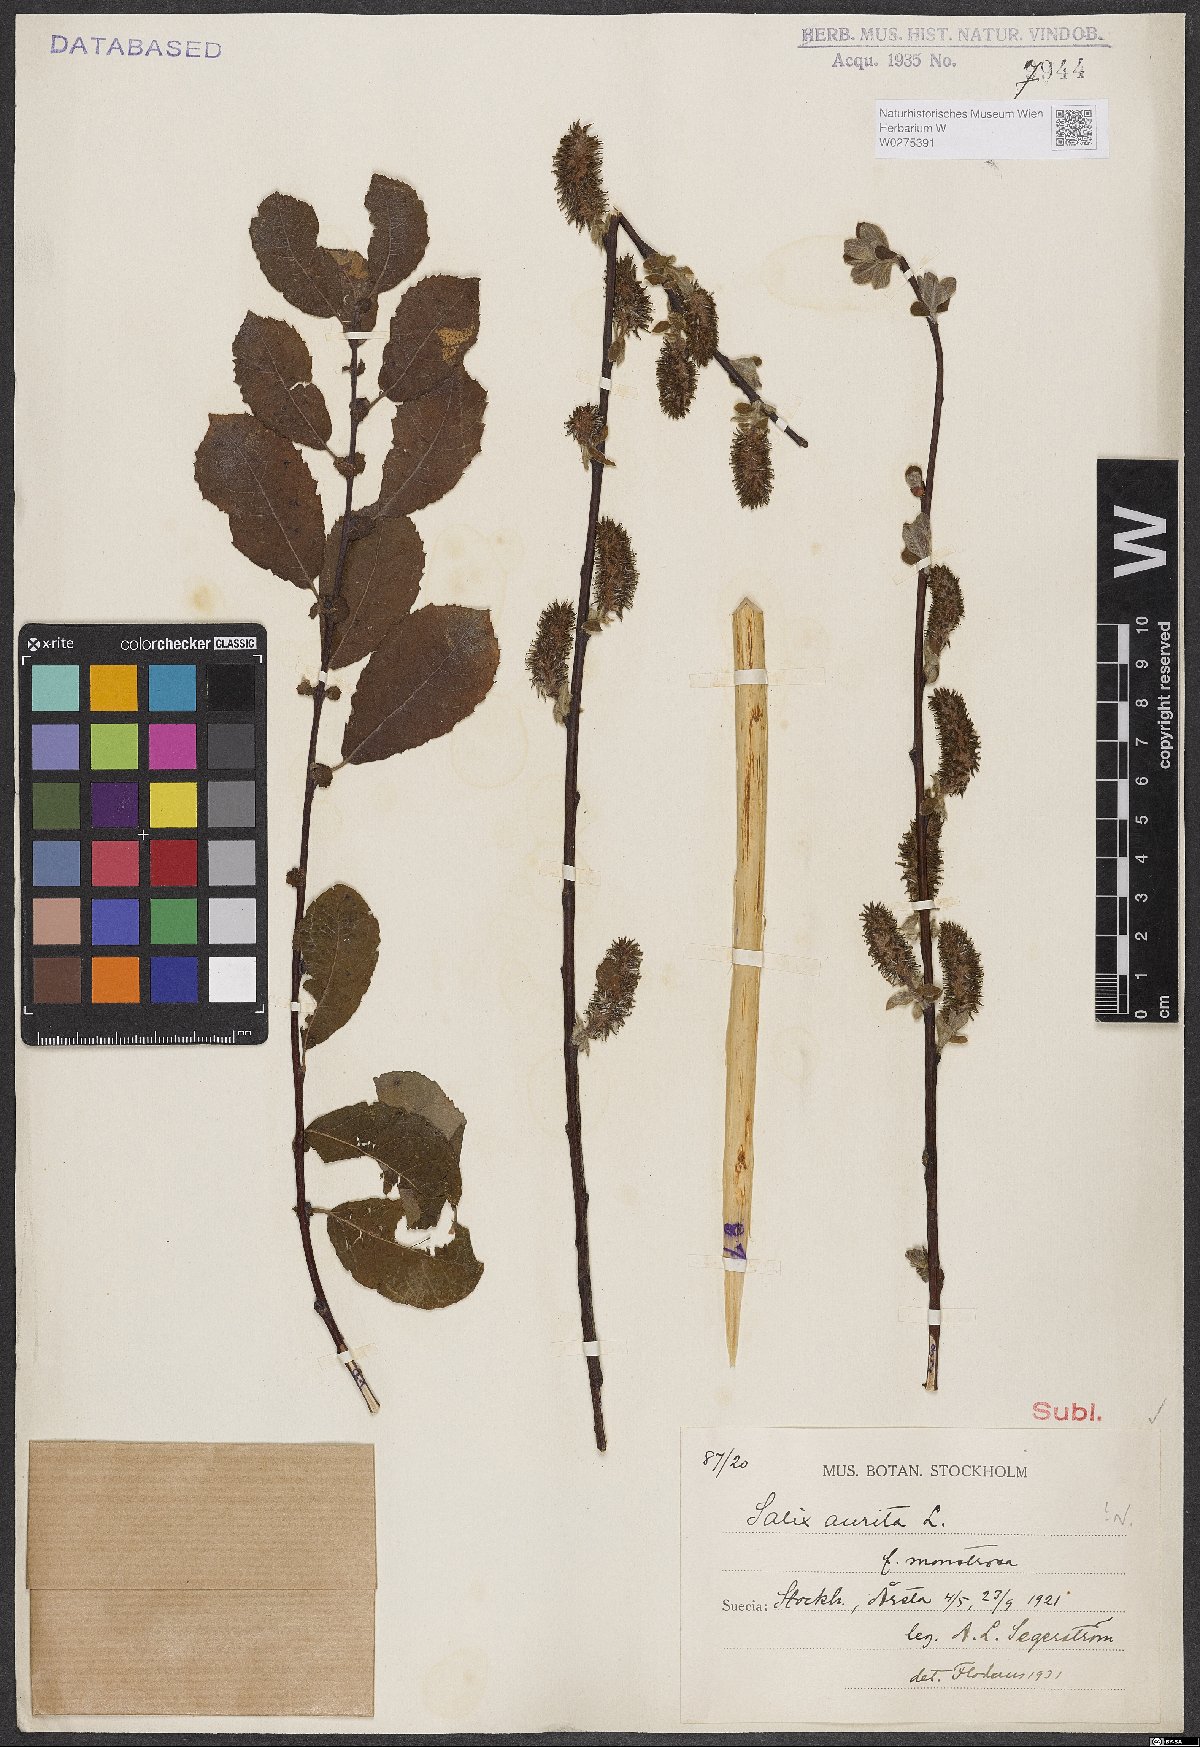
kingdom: Plantae
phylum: Tracheophyta
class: Magnoliopsida
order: Malpighiales
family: Salicaceae
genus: Salix
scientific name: Salix aurita
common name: Eared willow
